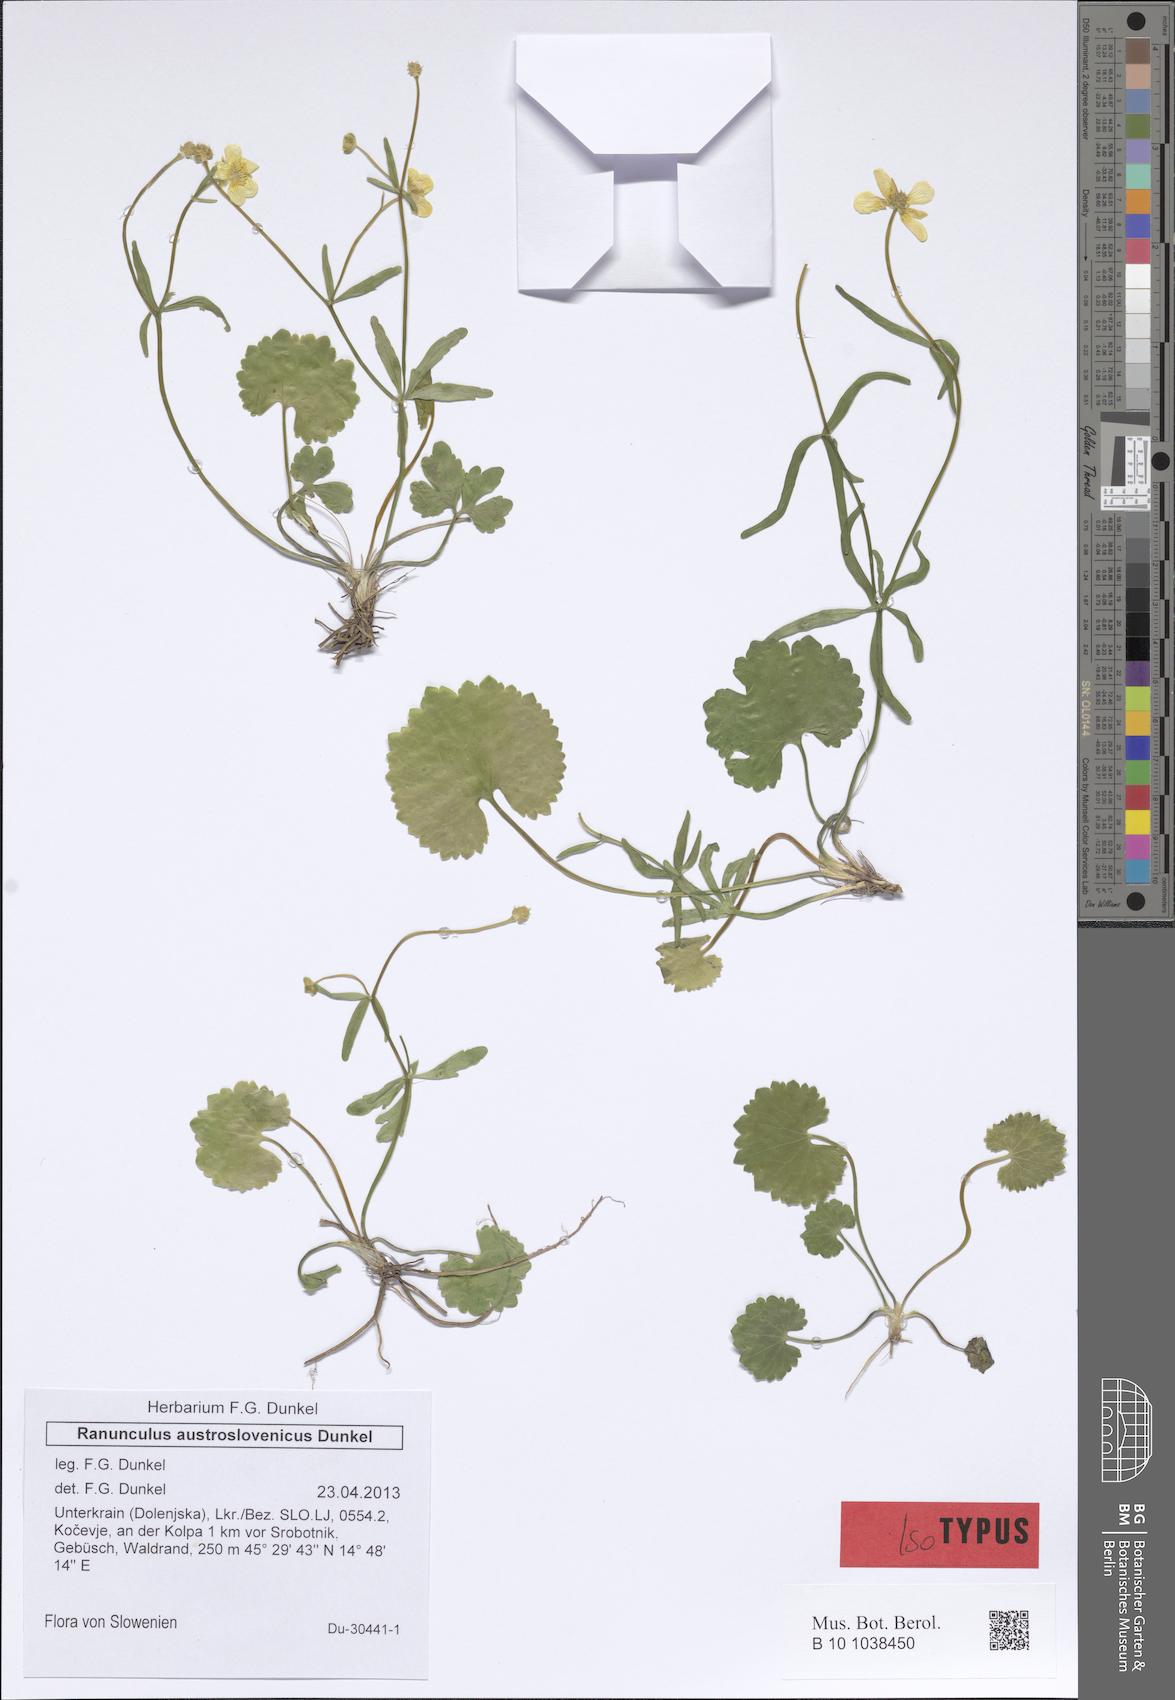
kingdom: Plantae
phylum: Tracheophyta
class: Magnoliopsida
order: Ranunculales
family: Ranunculaceae
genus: Ranunculus
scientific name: Ranunculus notabilis
